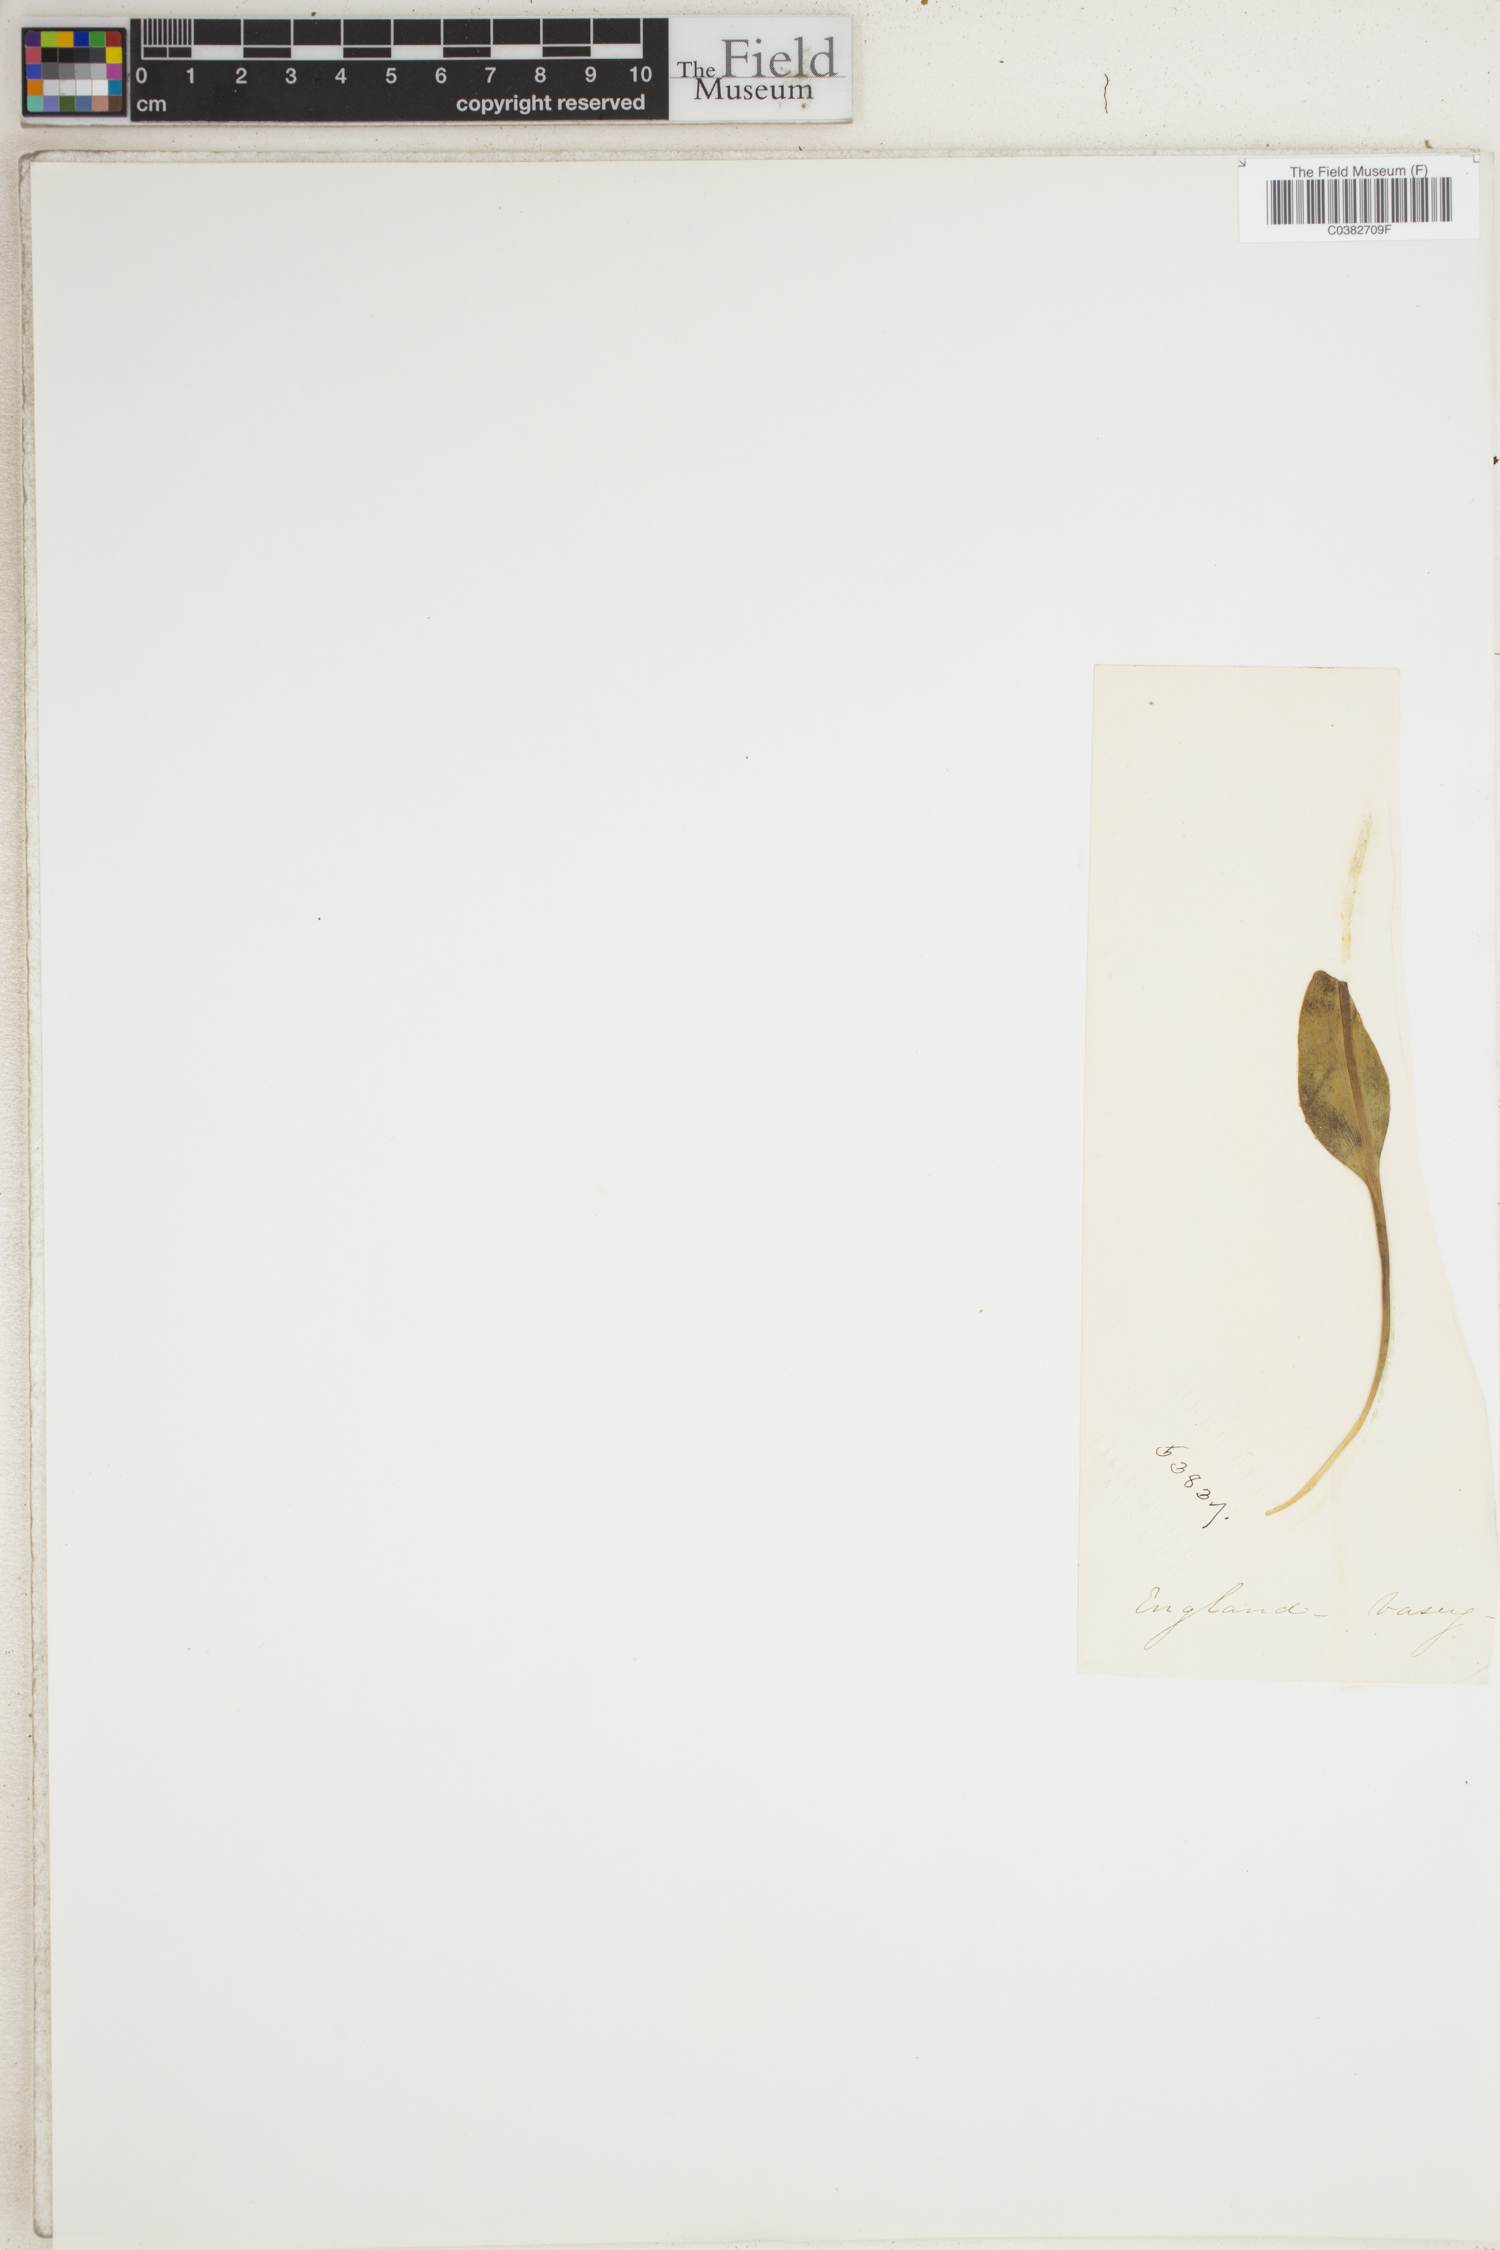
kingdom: Plantae
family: Pteridophyta
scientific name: Pteridophyta
